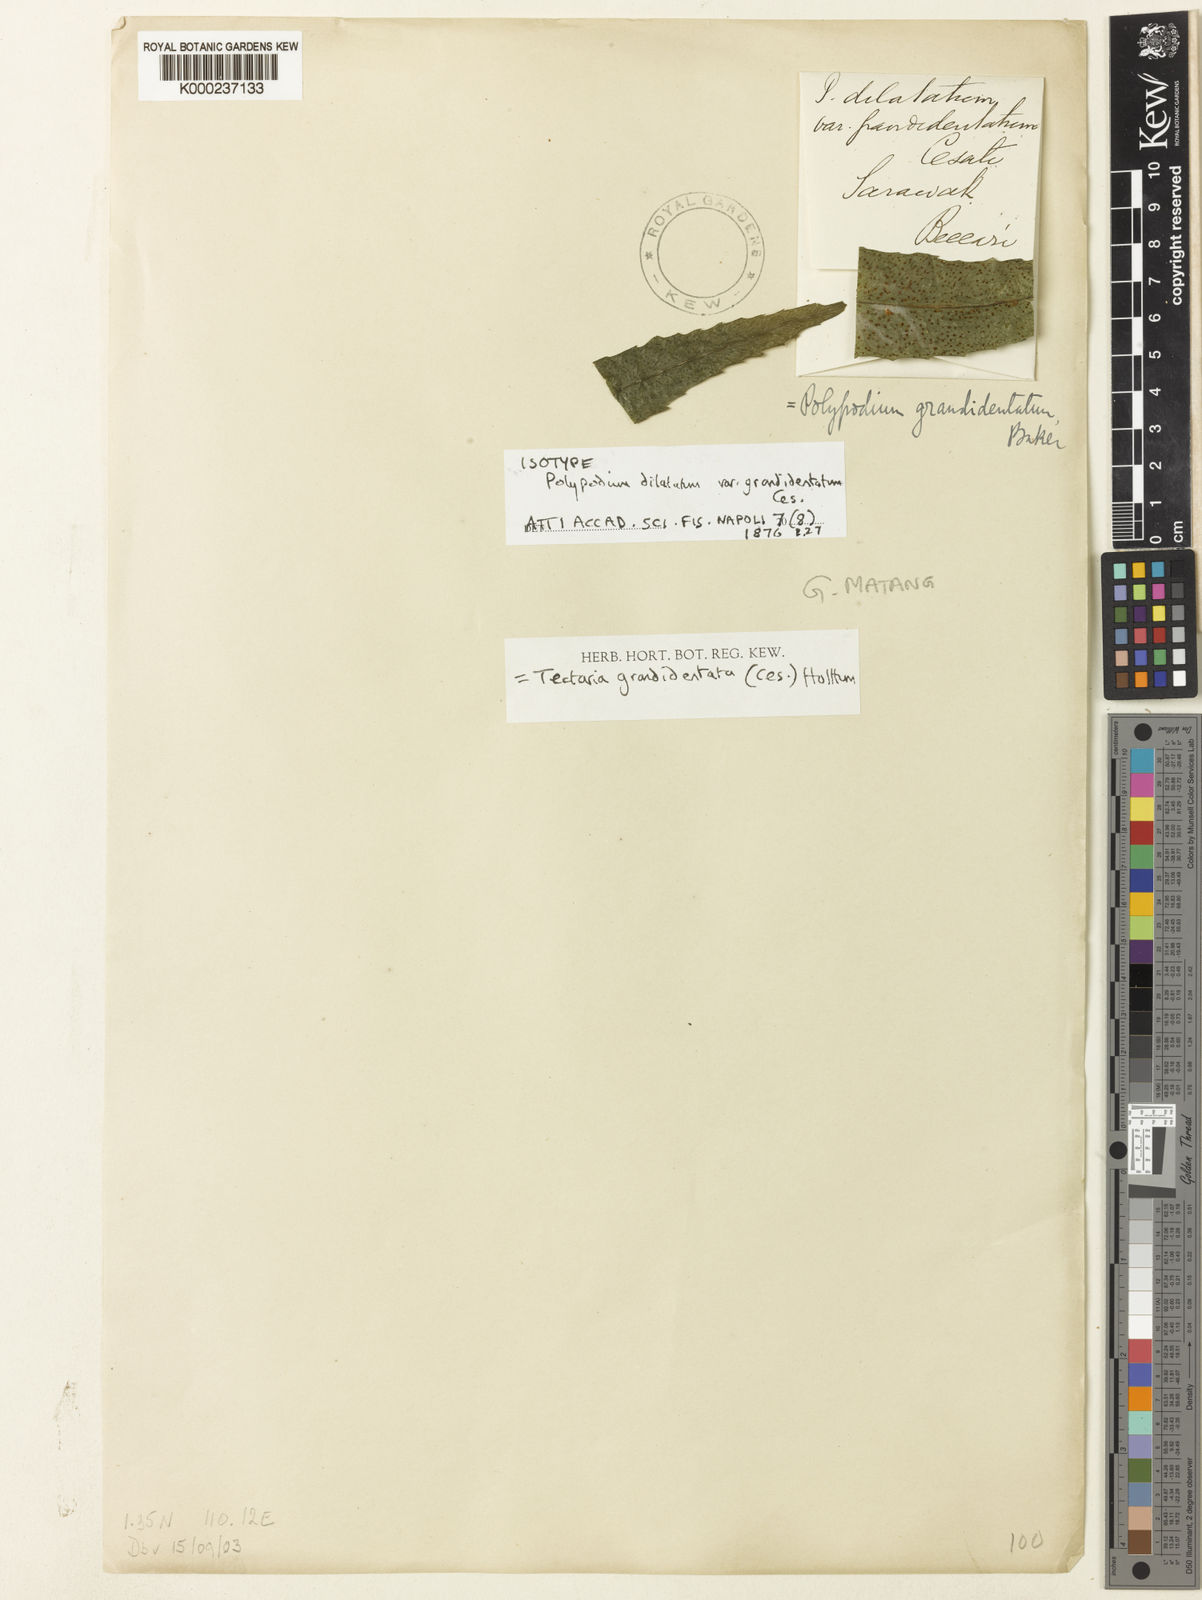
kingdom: Plantae
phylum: Tracheophyta
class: Polypodiopsida
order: Polypodiales
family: Tectariaceae
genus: Malaifilix
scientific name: Malaifilix grandidentata
